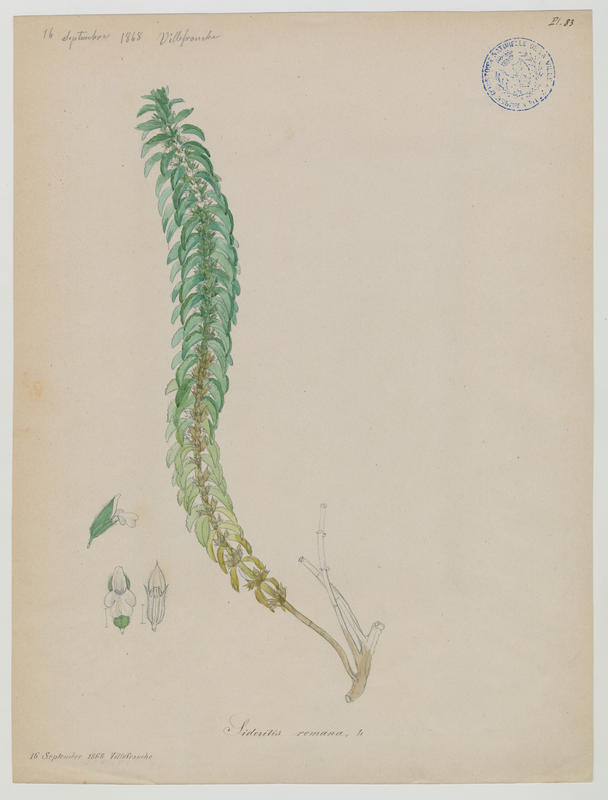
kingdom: Plantae
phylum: Tracheophyta
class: Magnoliopsida
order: Lamiales
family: Lamiaceae
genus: Sideritis
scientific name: Sideritis romana
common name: Simplebeak ironwort
